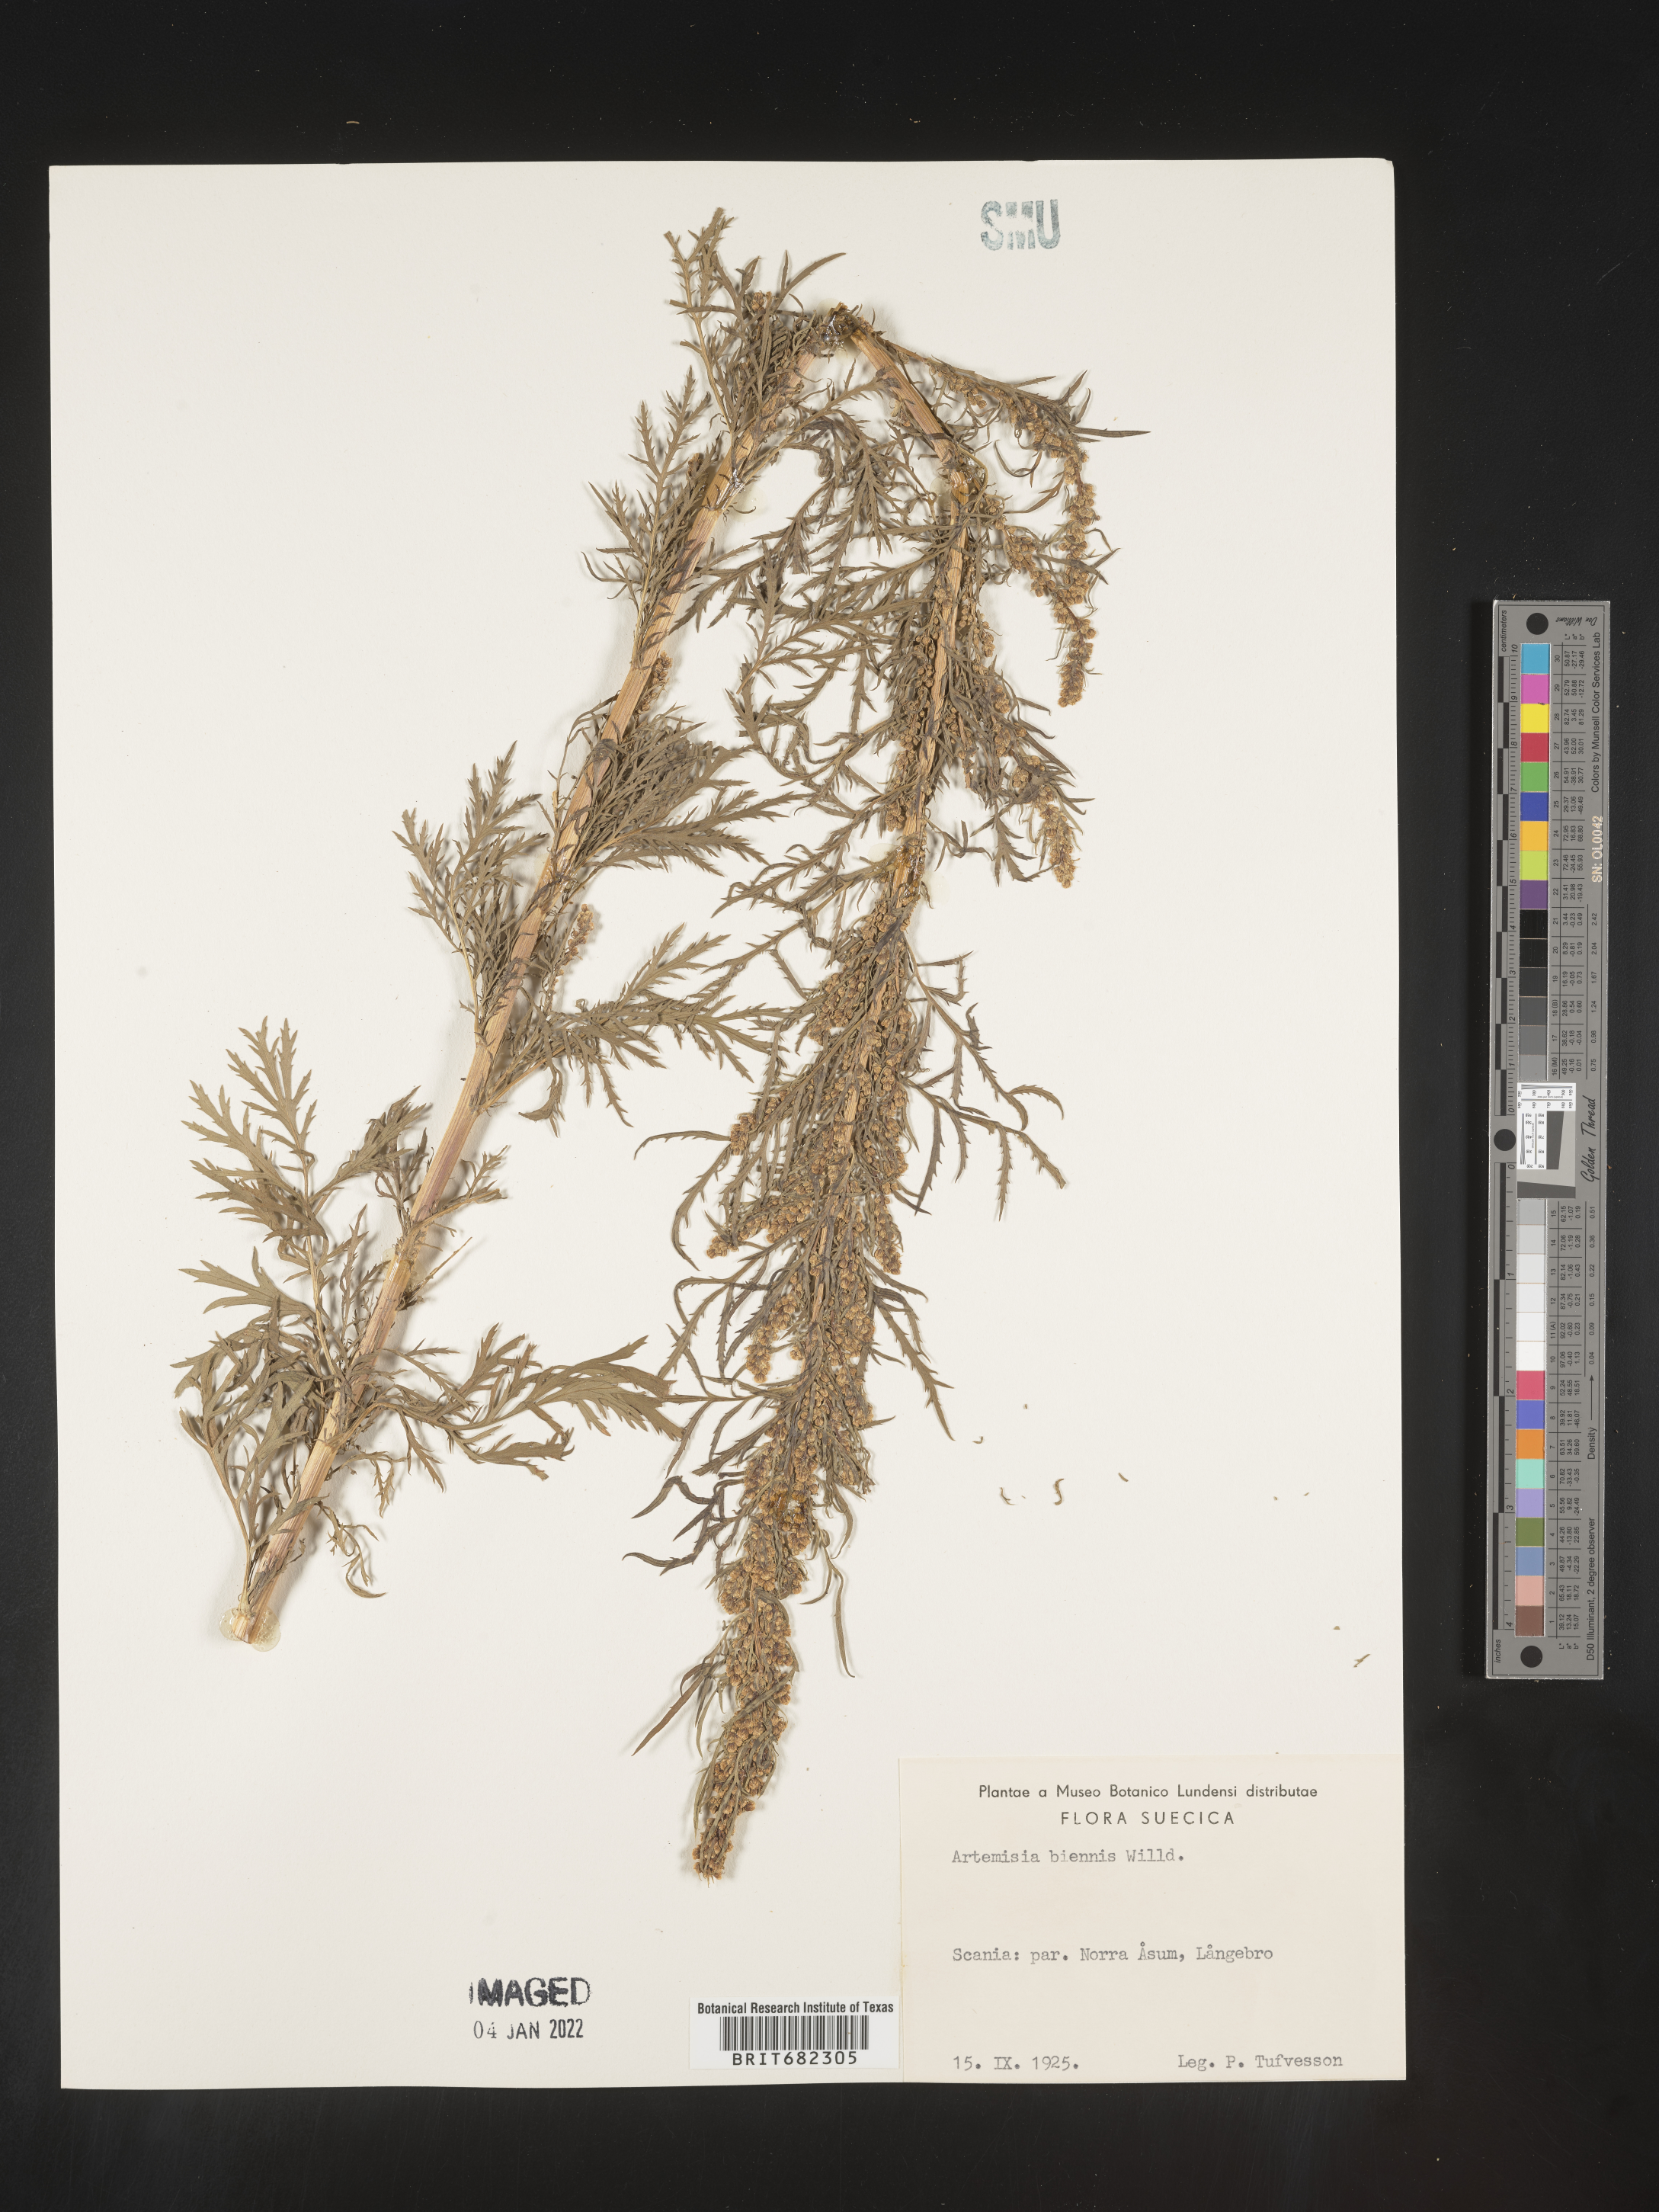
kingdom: Plantae
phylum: Tracheophyta
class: Magnoliopsida
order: Asterales
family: Asteraceae
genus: Artemisia
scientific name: Artemisia
